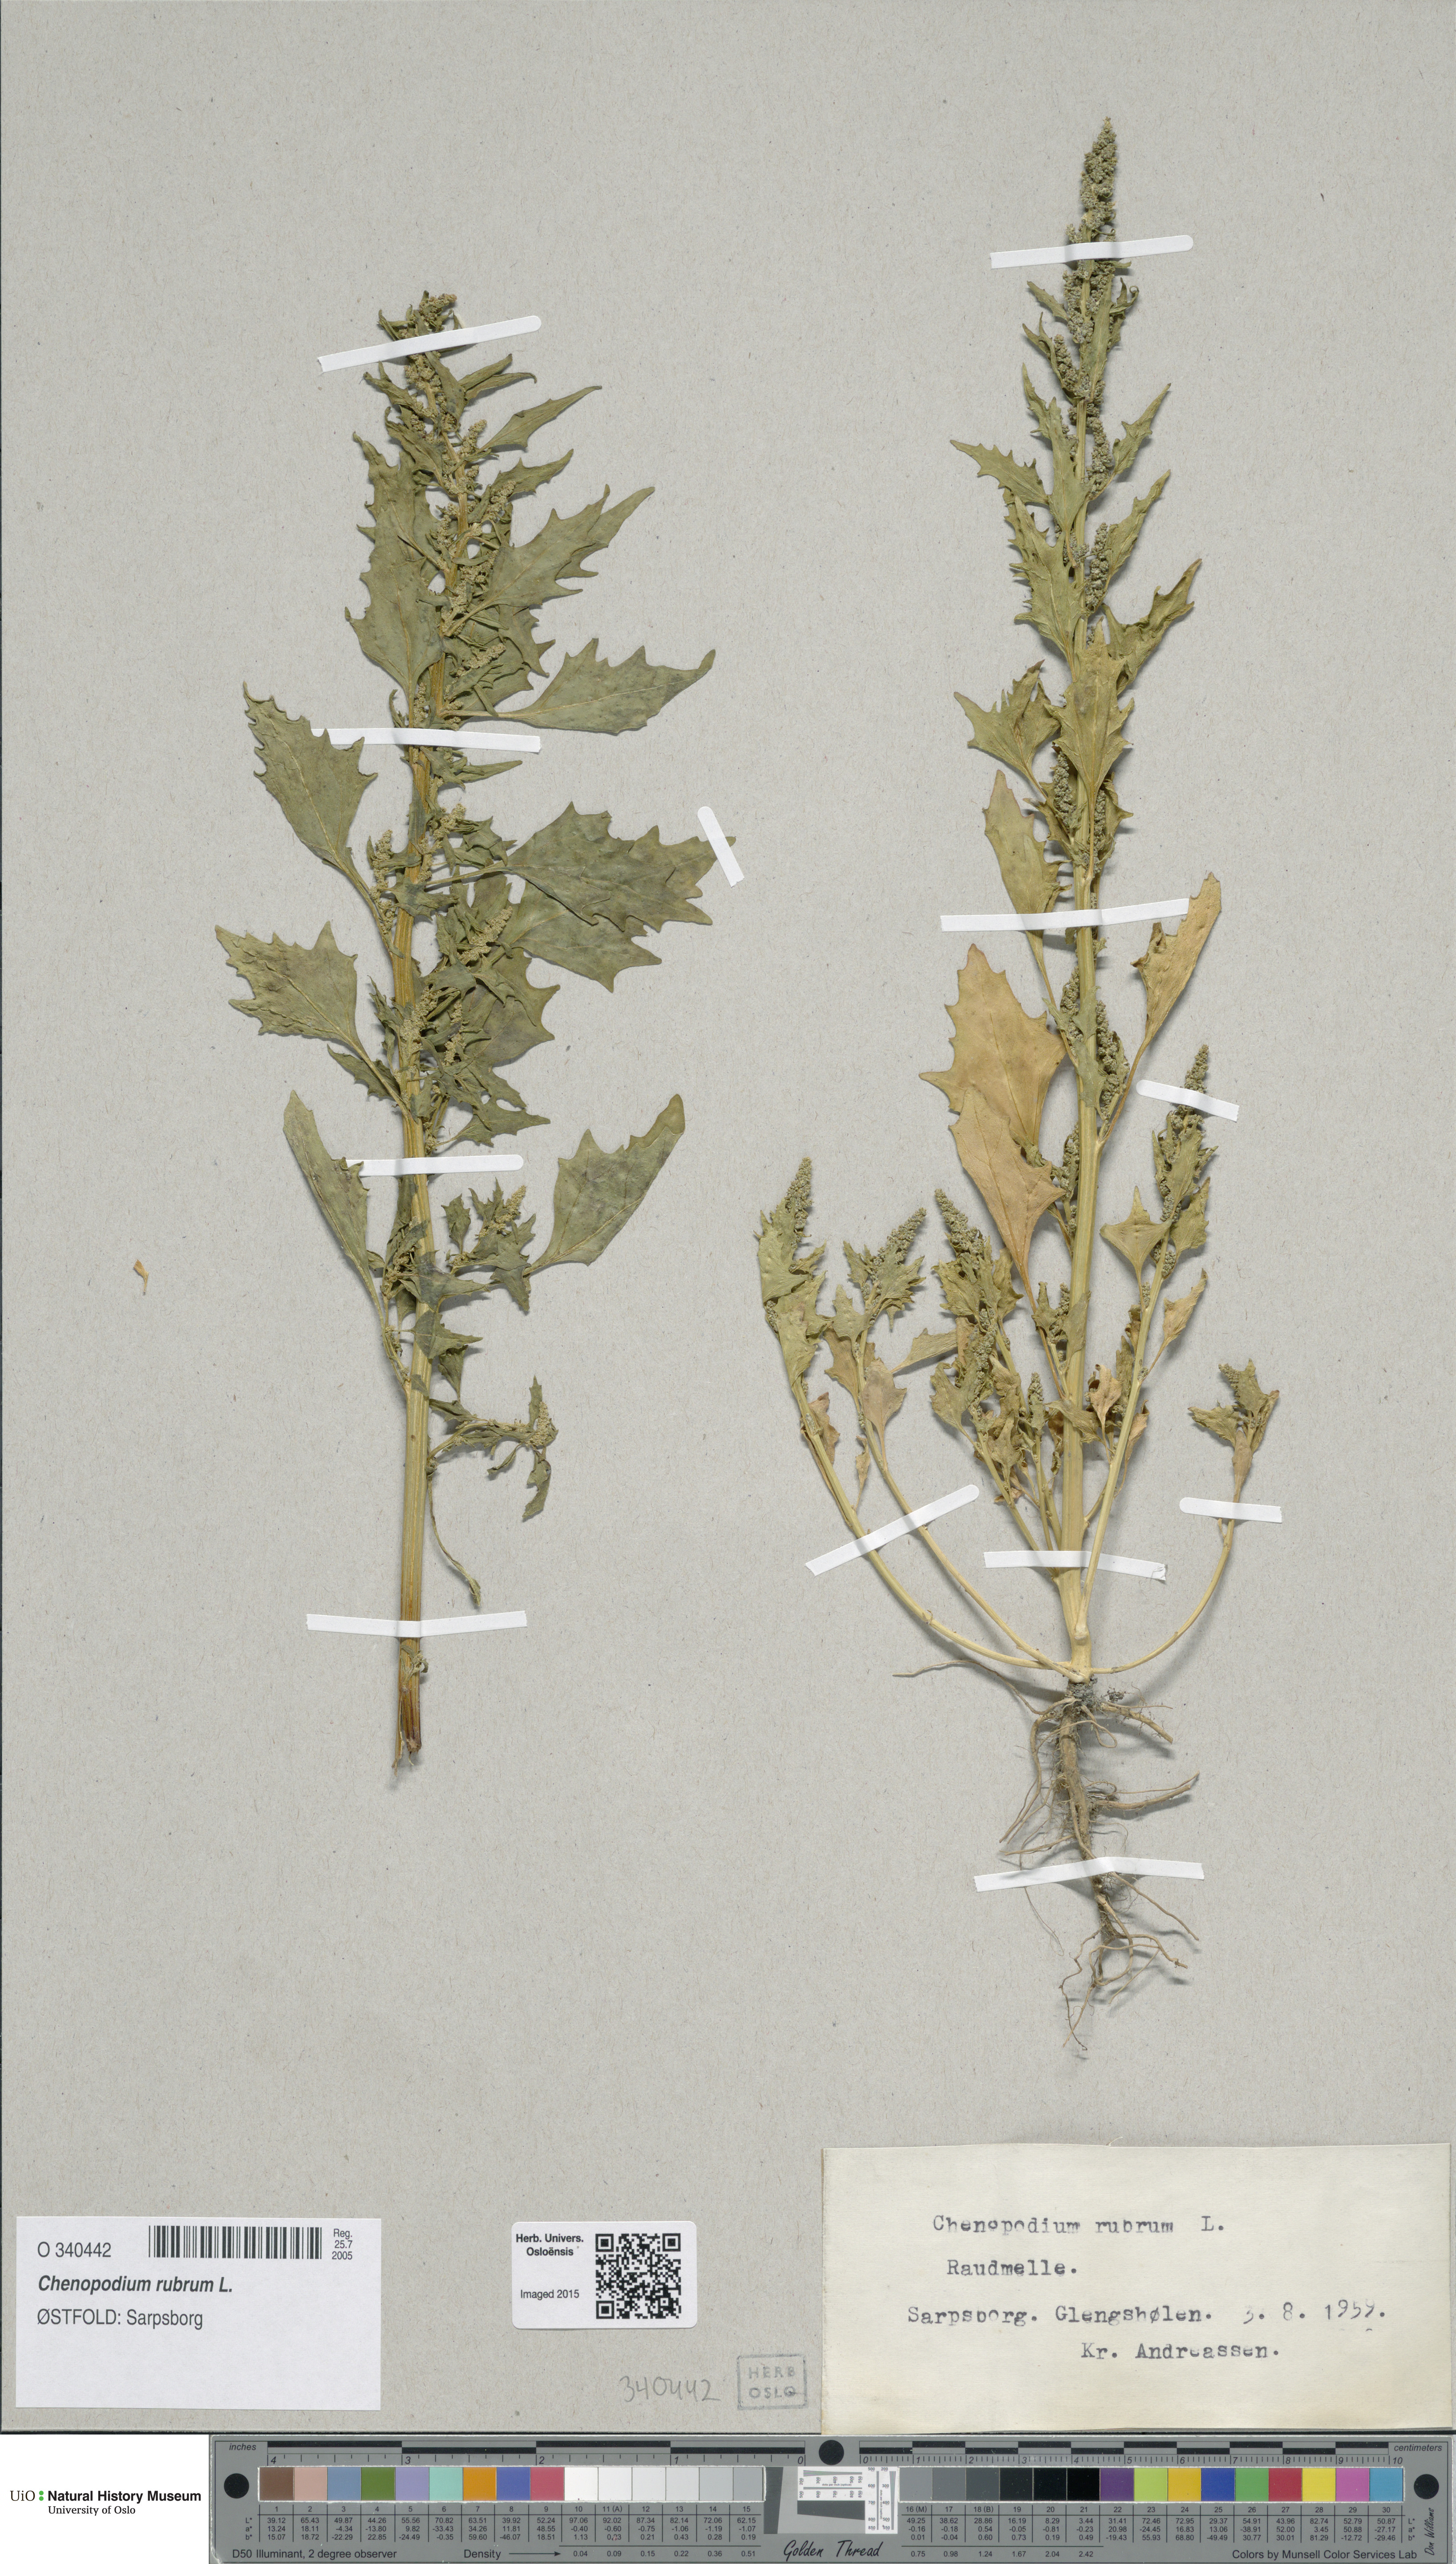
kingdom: Plantae
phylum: Tracheophyta
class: Magnoliopsida
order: Caryophyllales
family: Amaranthaceae
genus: Oxybasis
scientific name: Oxybasis rubra
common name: Red goosefoot
